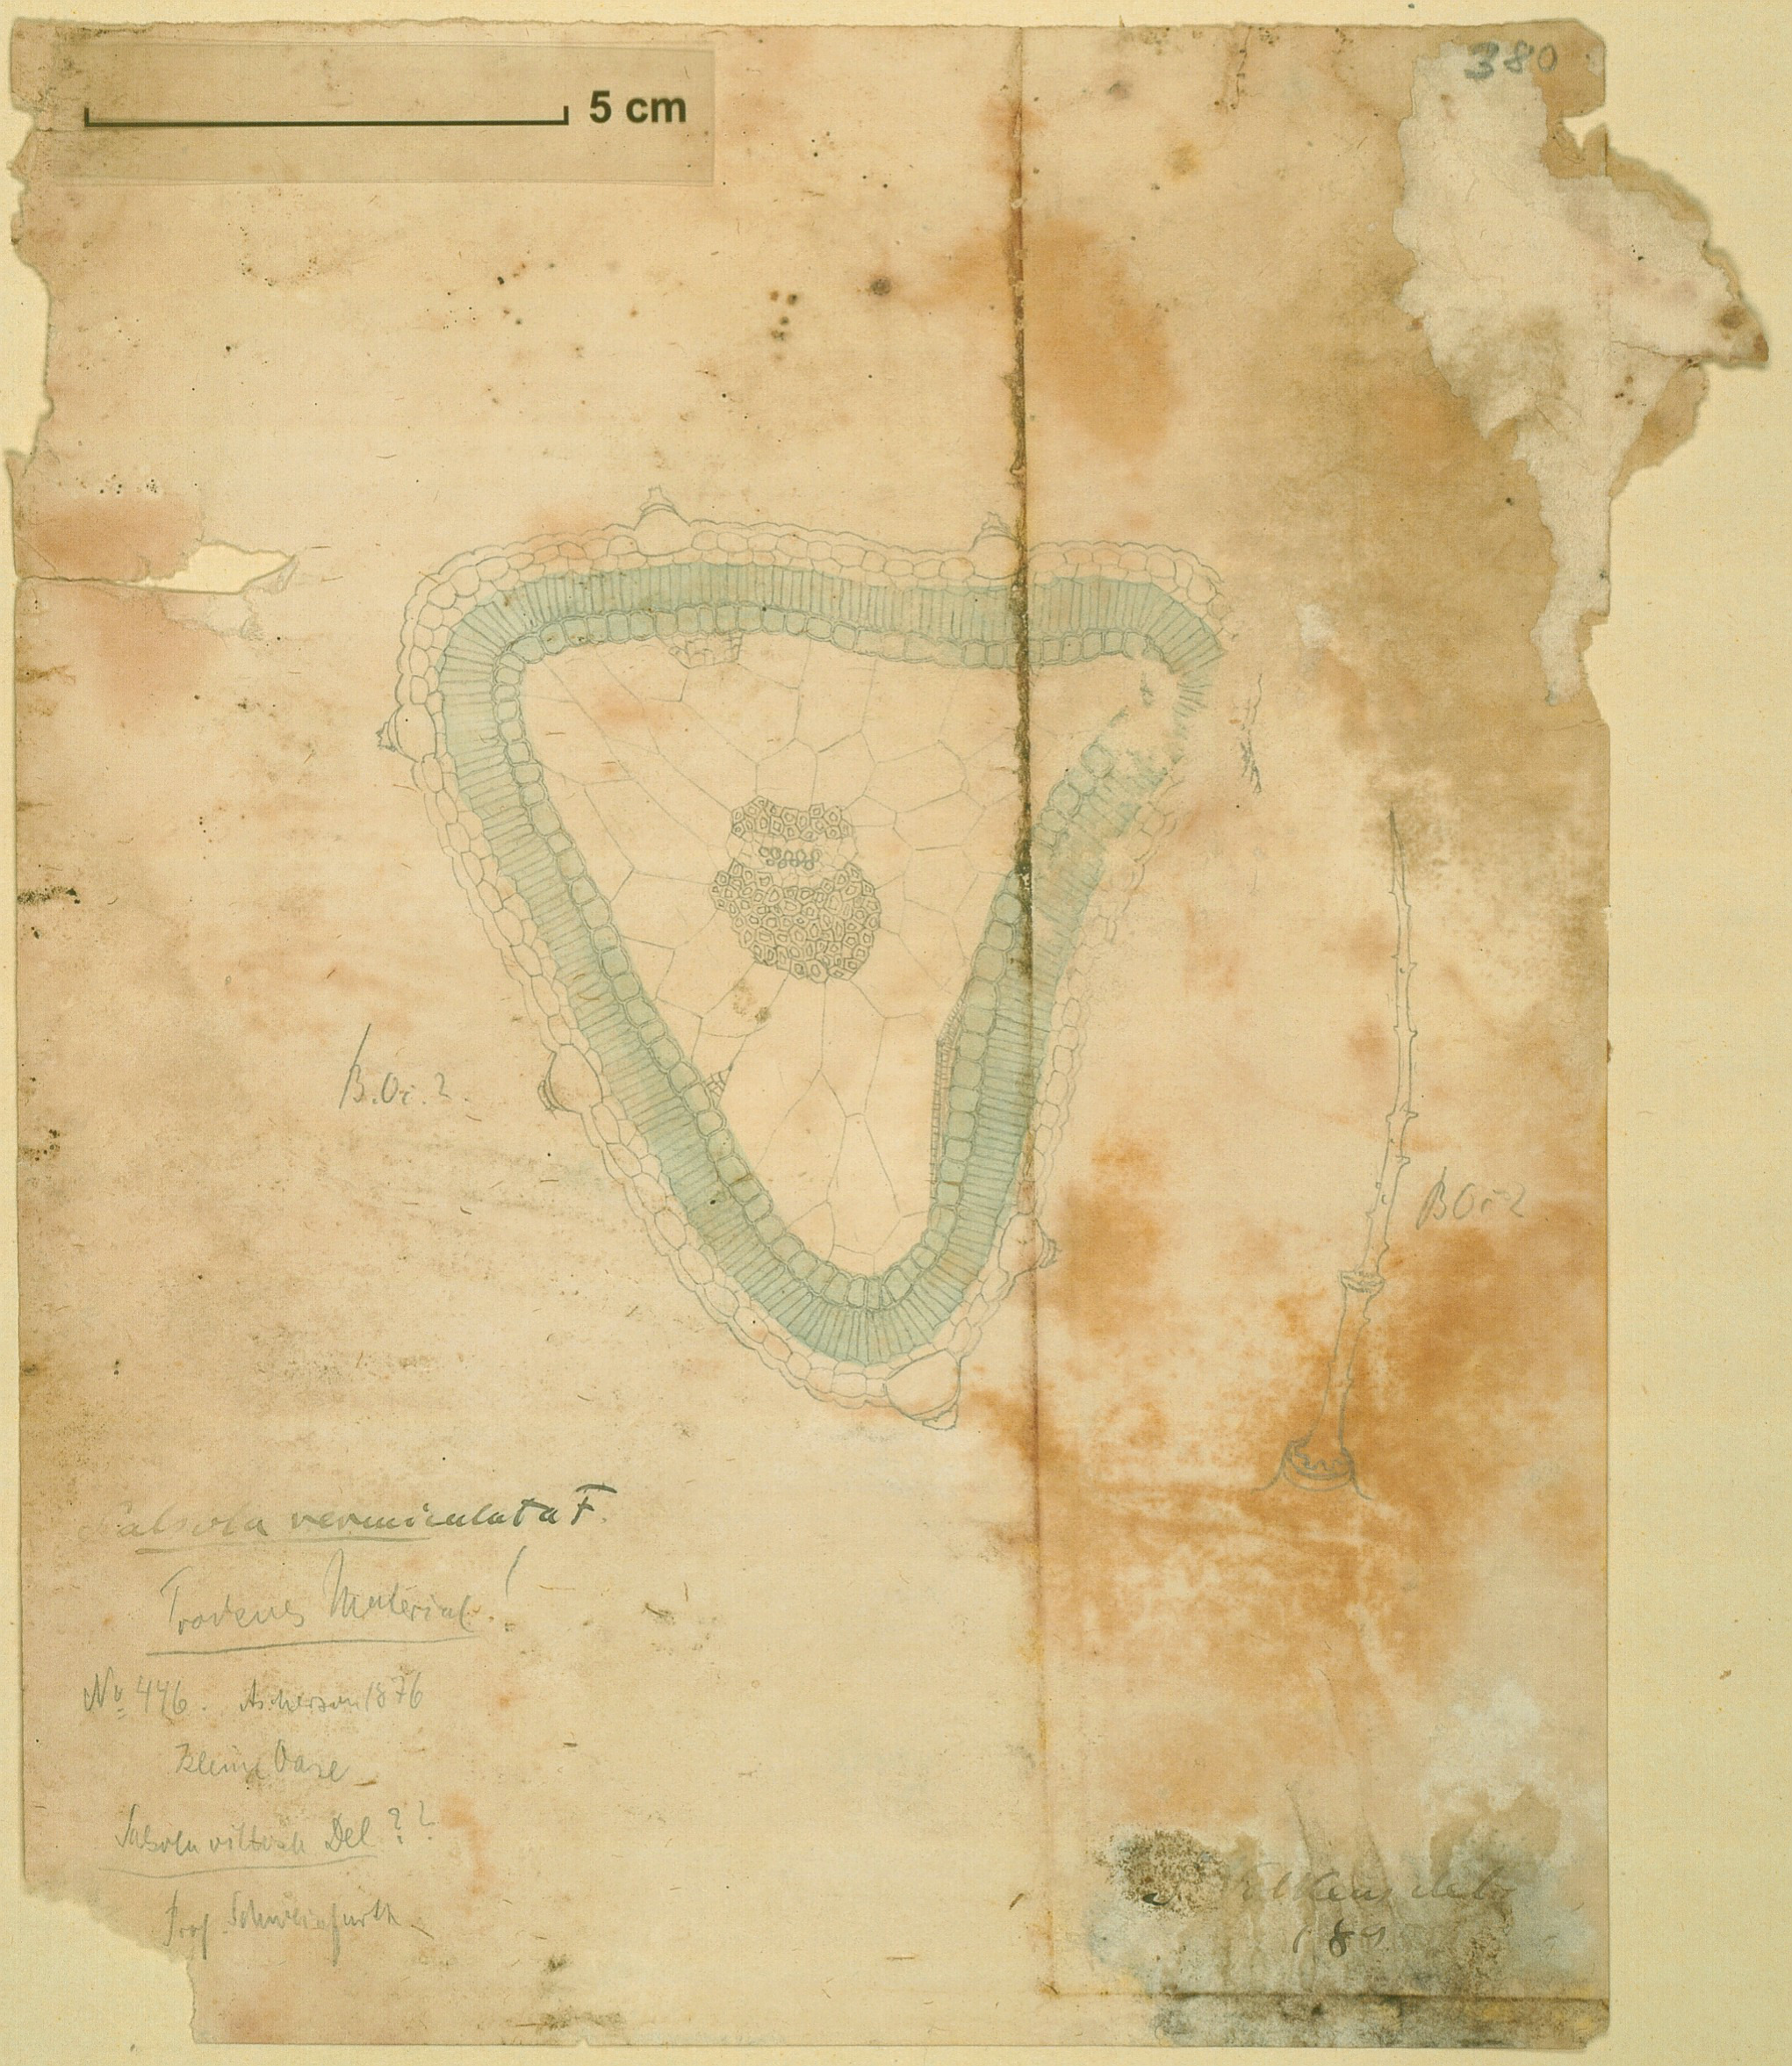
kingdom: Plantae
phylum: Tracheophyta
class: Magnoliopsida
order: Caryophyllales
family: Amaranthaceae
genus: Nitrosalsola
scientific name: Nitrosalsola vermiculata
